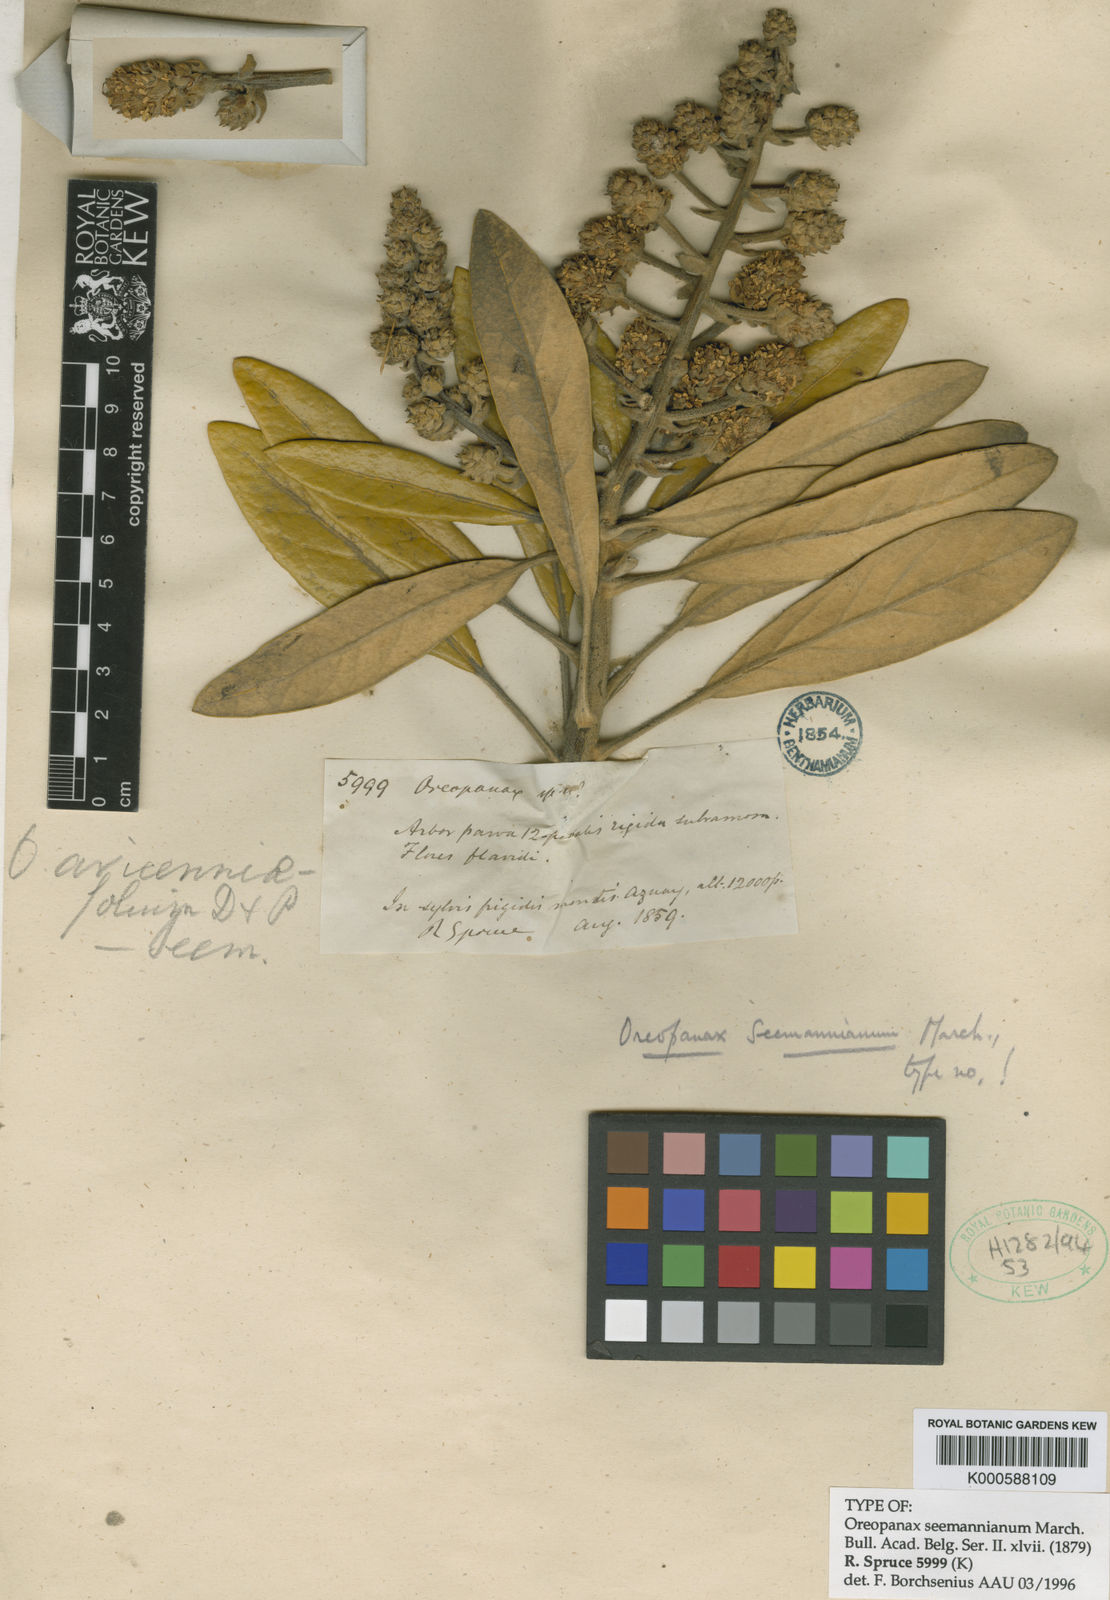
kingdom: Plantae
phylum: Tracheophyta
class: Magnoliopsida
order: Apiales
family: Araliaceae
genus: Oreopanax
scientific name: Oreopanax seemannianus
